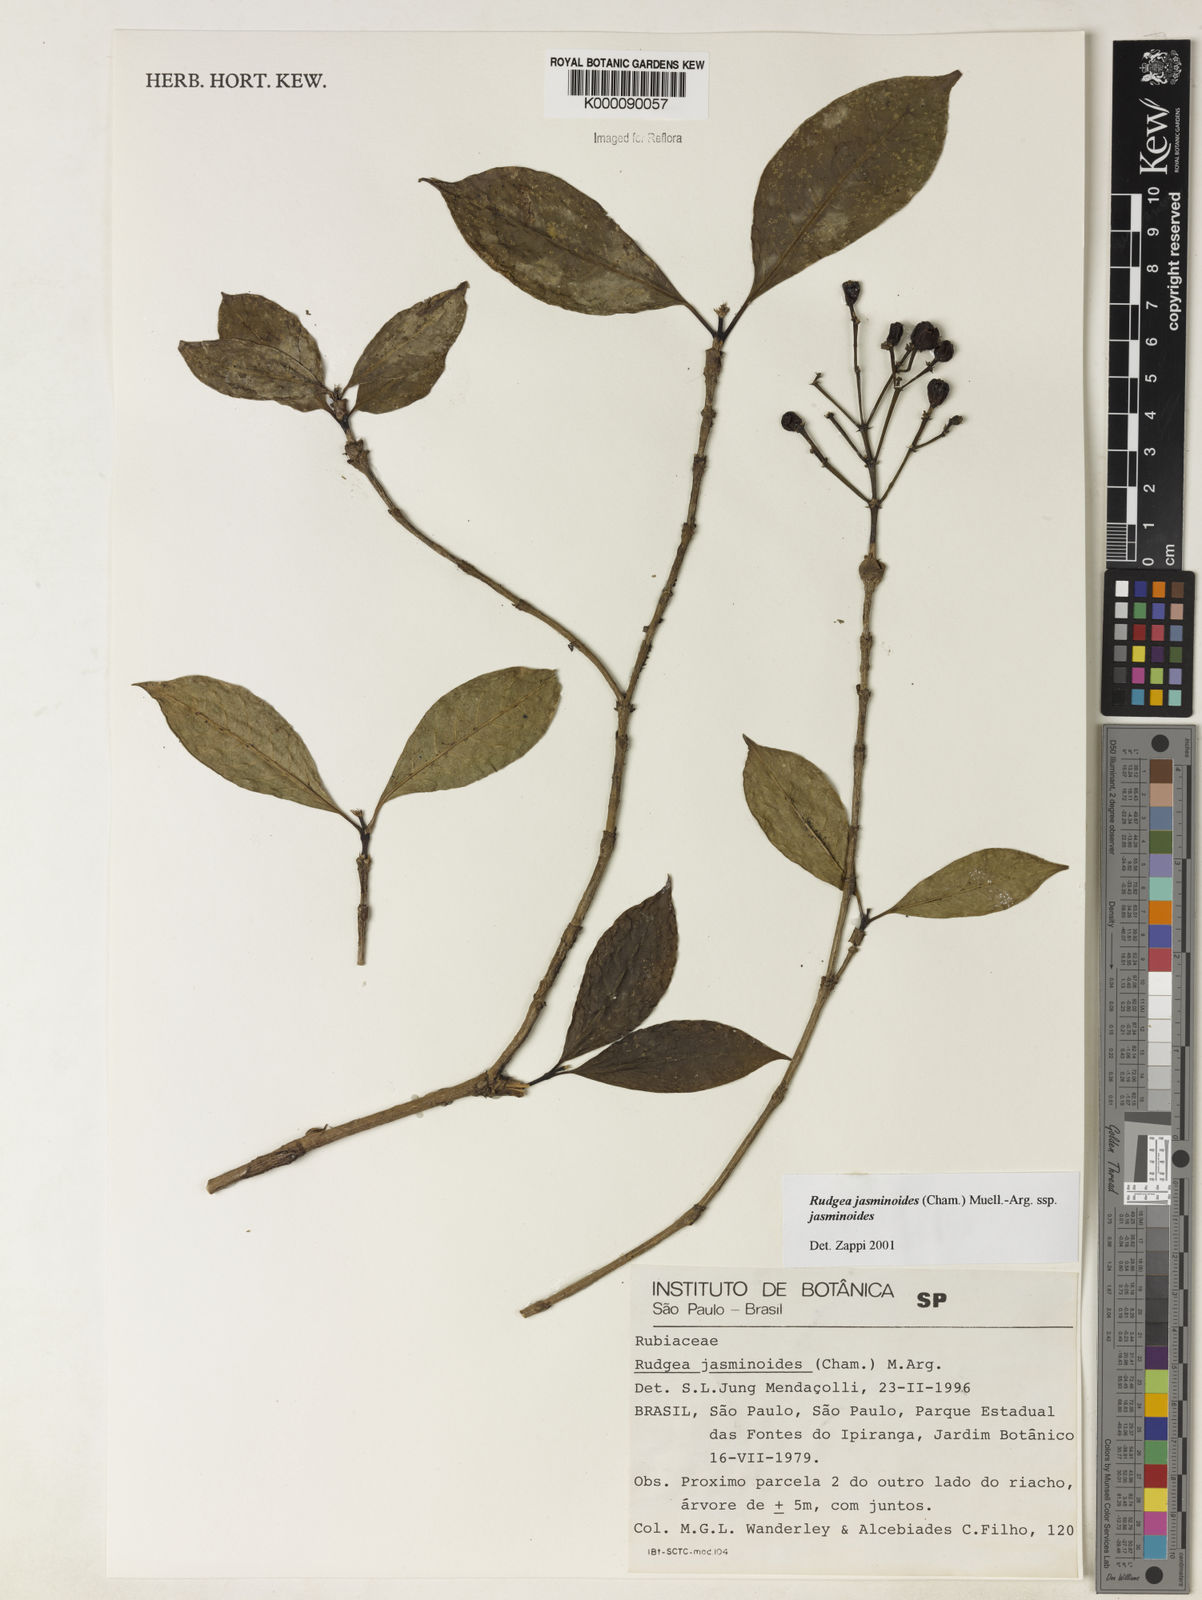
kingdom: Plantae
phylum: Tracheophyta
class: Magnoliopsida
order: Gentianales
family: Rubiaceae
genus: Rudgea
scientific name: Rudgea jasminoides
